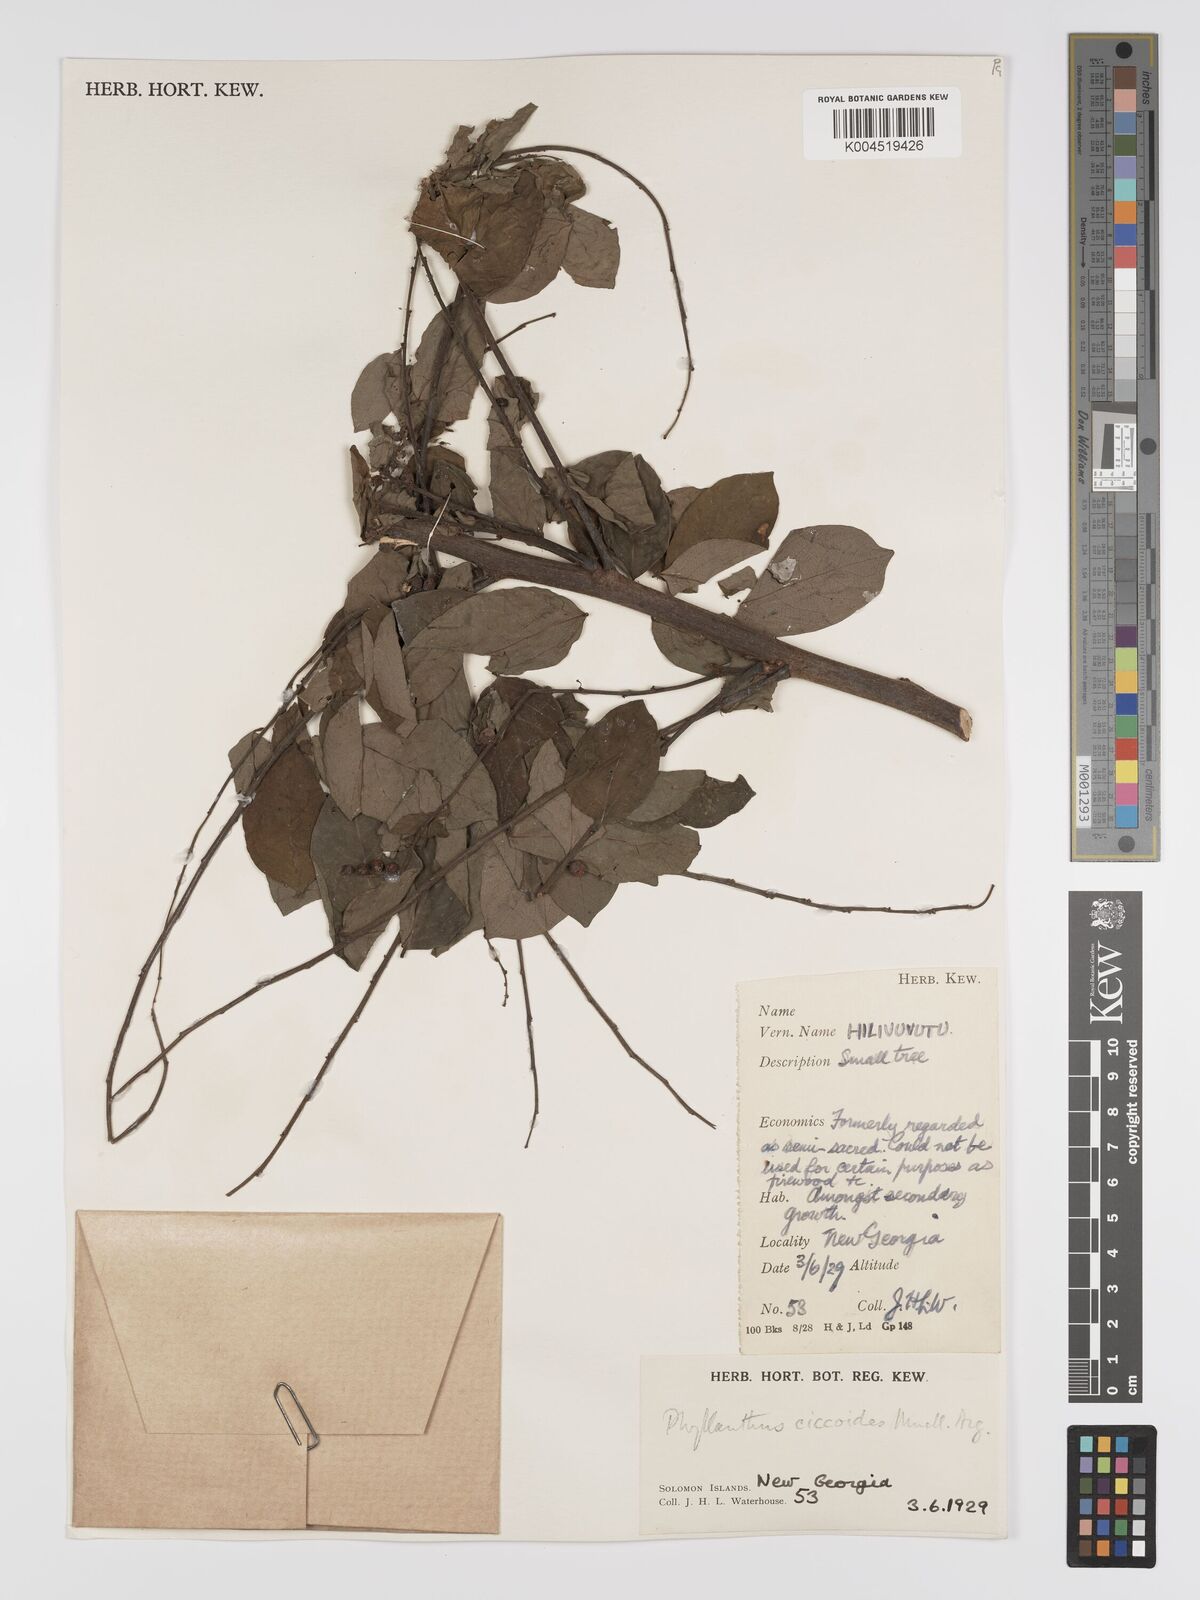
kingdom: Plantae
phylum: Tracheophyta
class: Magnoliopsida
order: Malpighiales
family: Phyllanthaceae
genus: Phyllanthus
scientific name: Phyllanthus ciccoides
